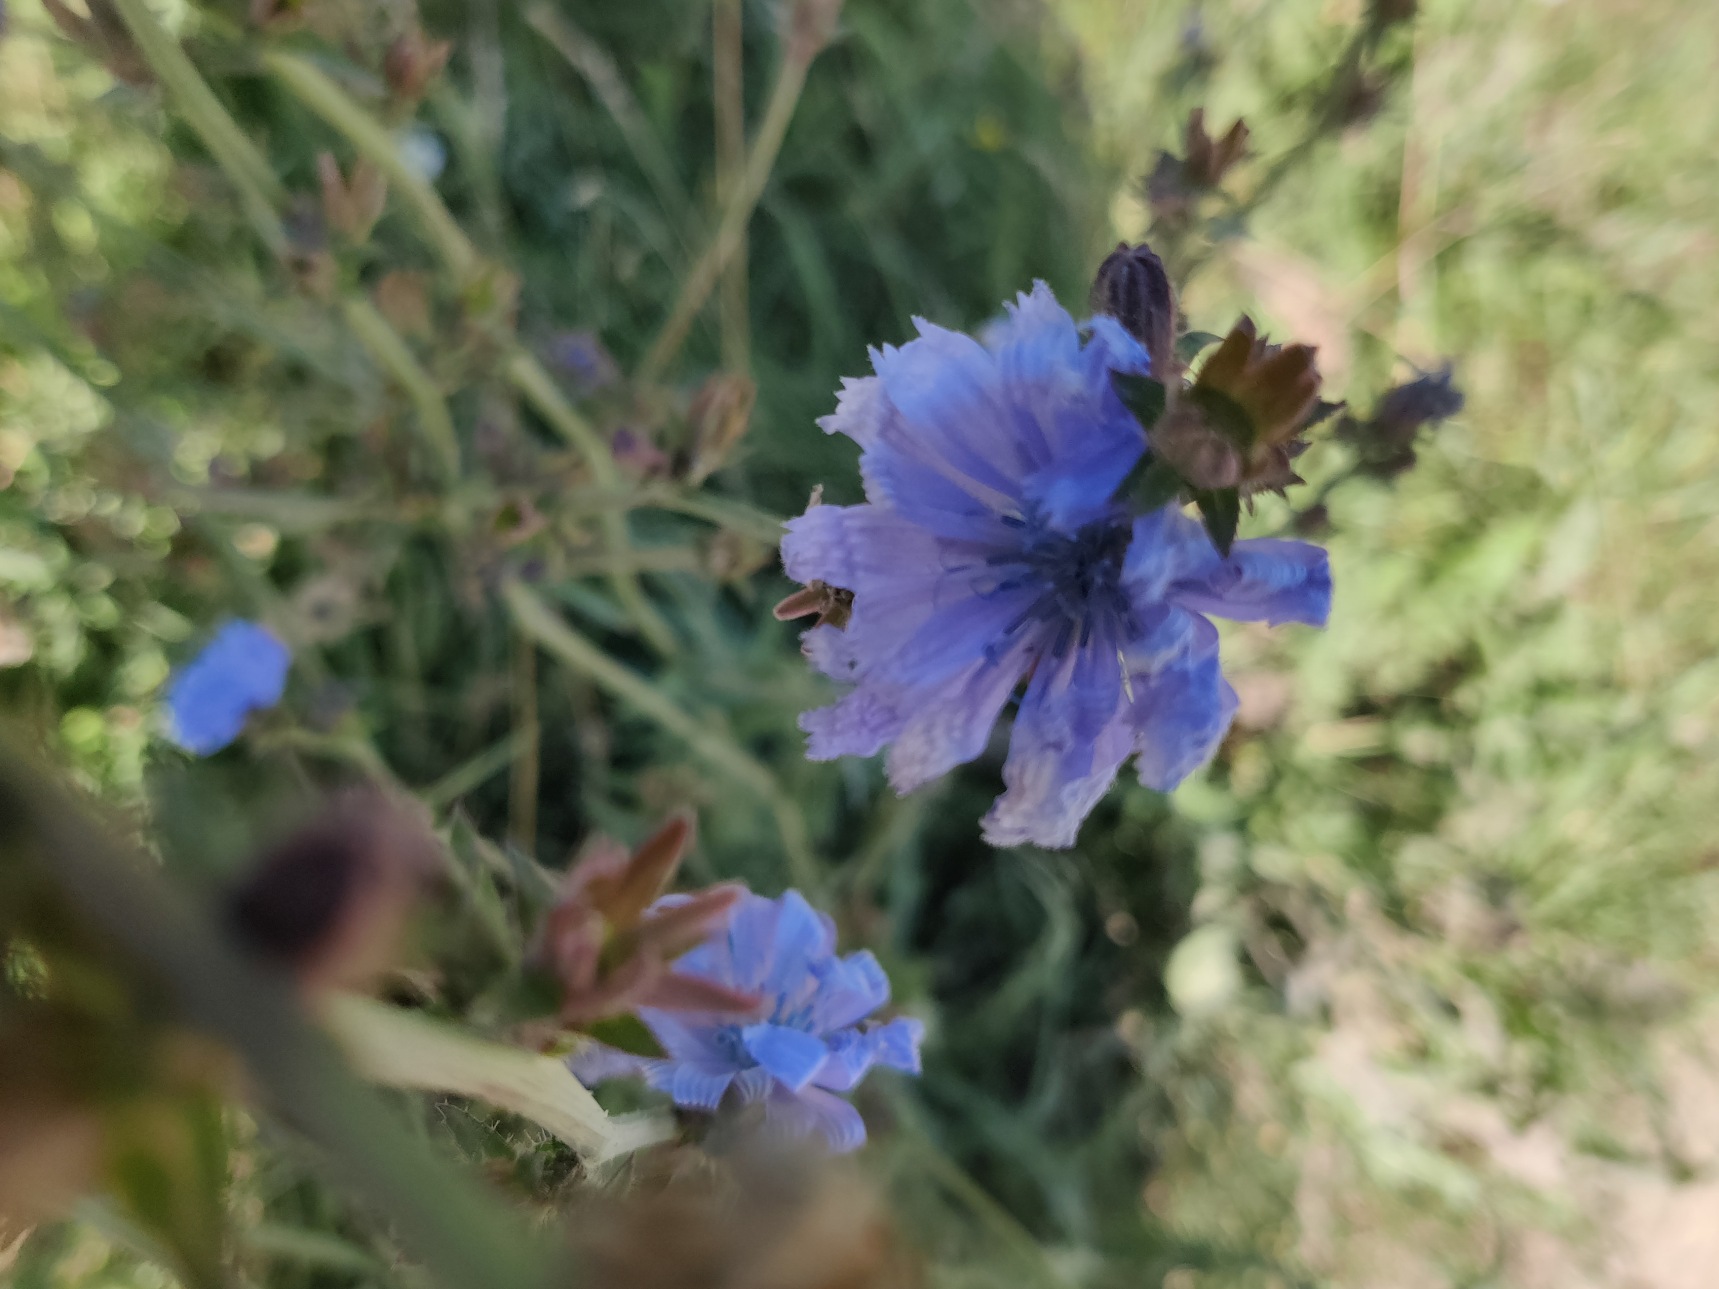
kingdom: Plantae
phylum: Tracheophyta
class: Magnoliopsida
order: Asterales
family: Asteraceae
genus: Cichorium
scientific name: Cichorium intybus
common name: Cikorie
